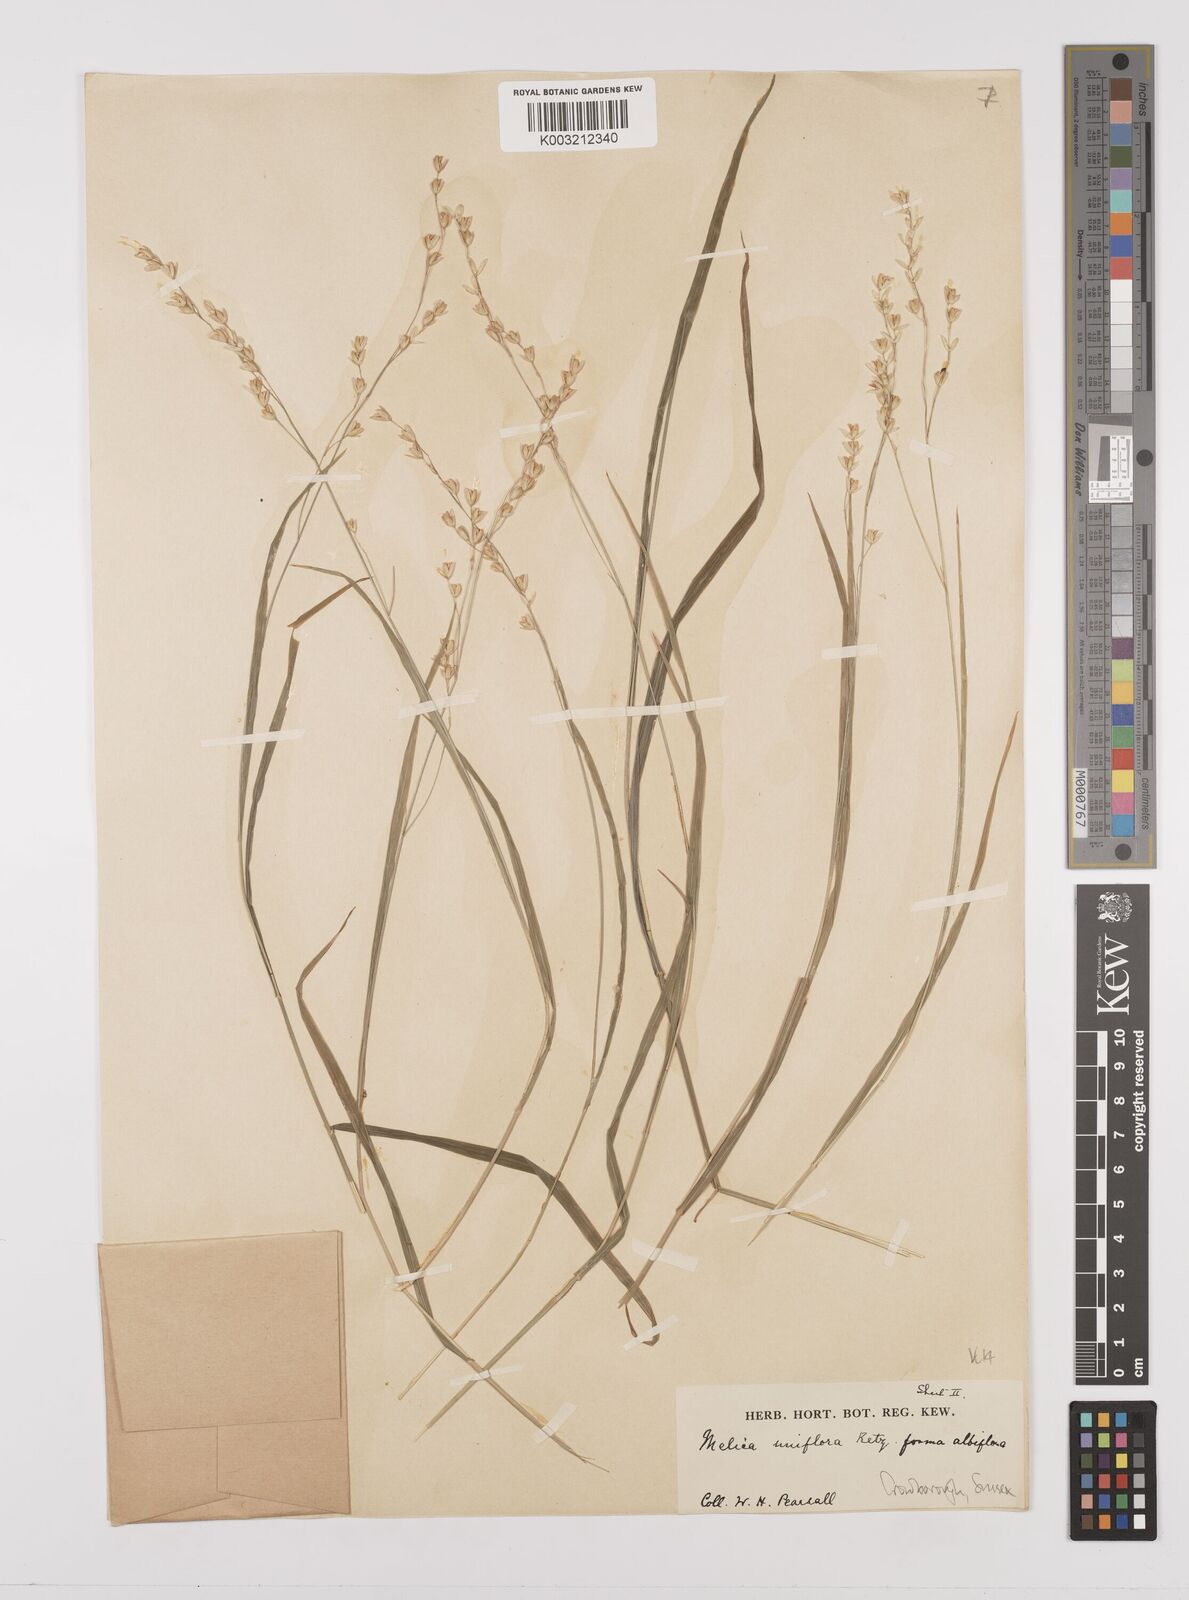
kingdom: Plantae
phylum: Tracheophyta
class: Liliopsida
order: Poales
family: Poaceae
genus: Melica
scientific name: Melica uniflora
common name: Wood melick
